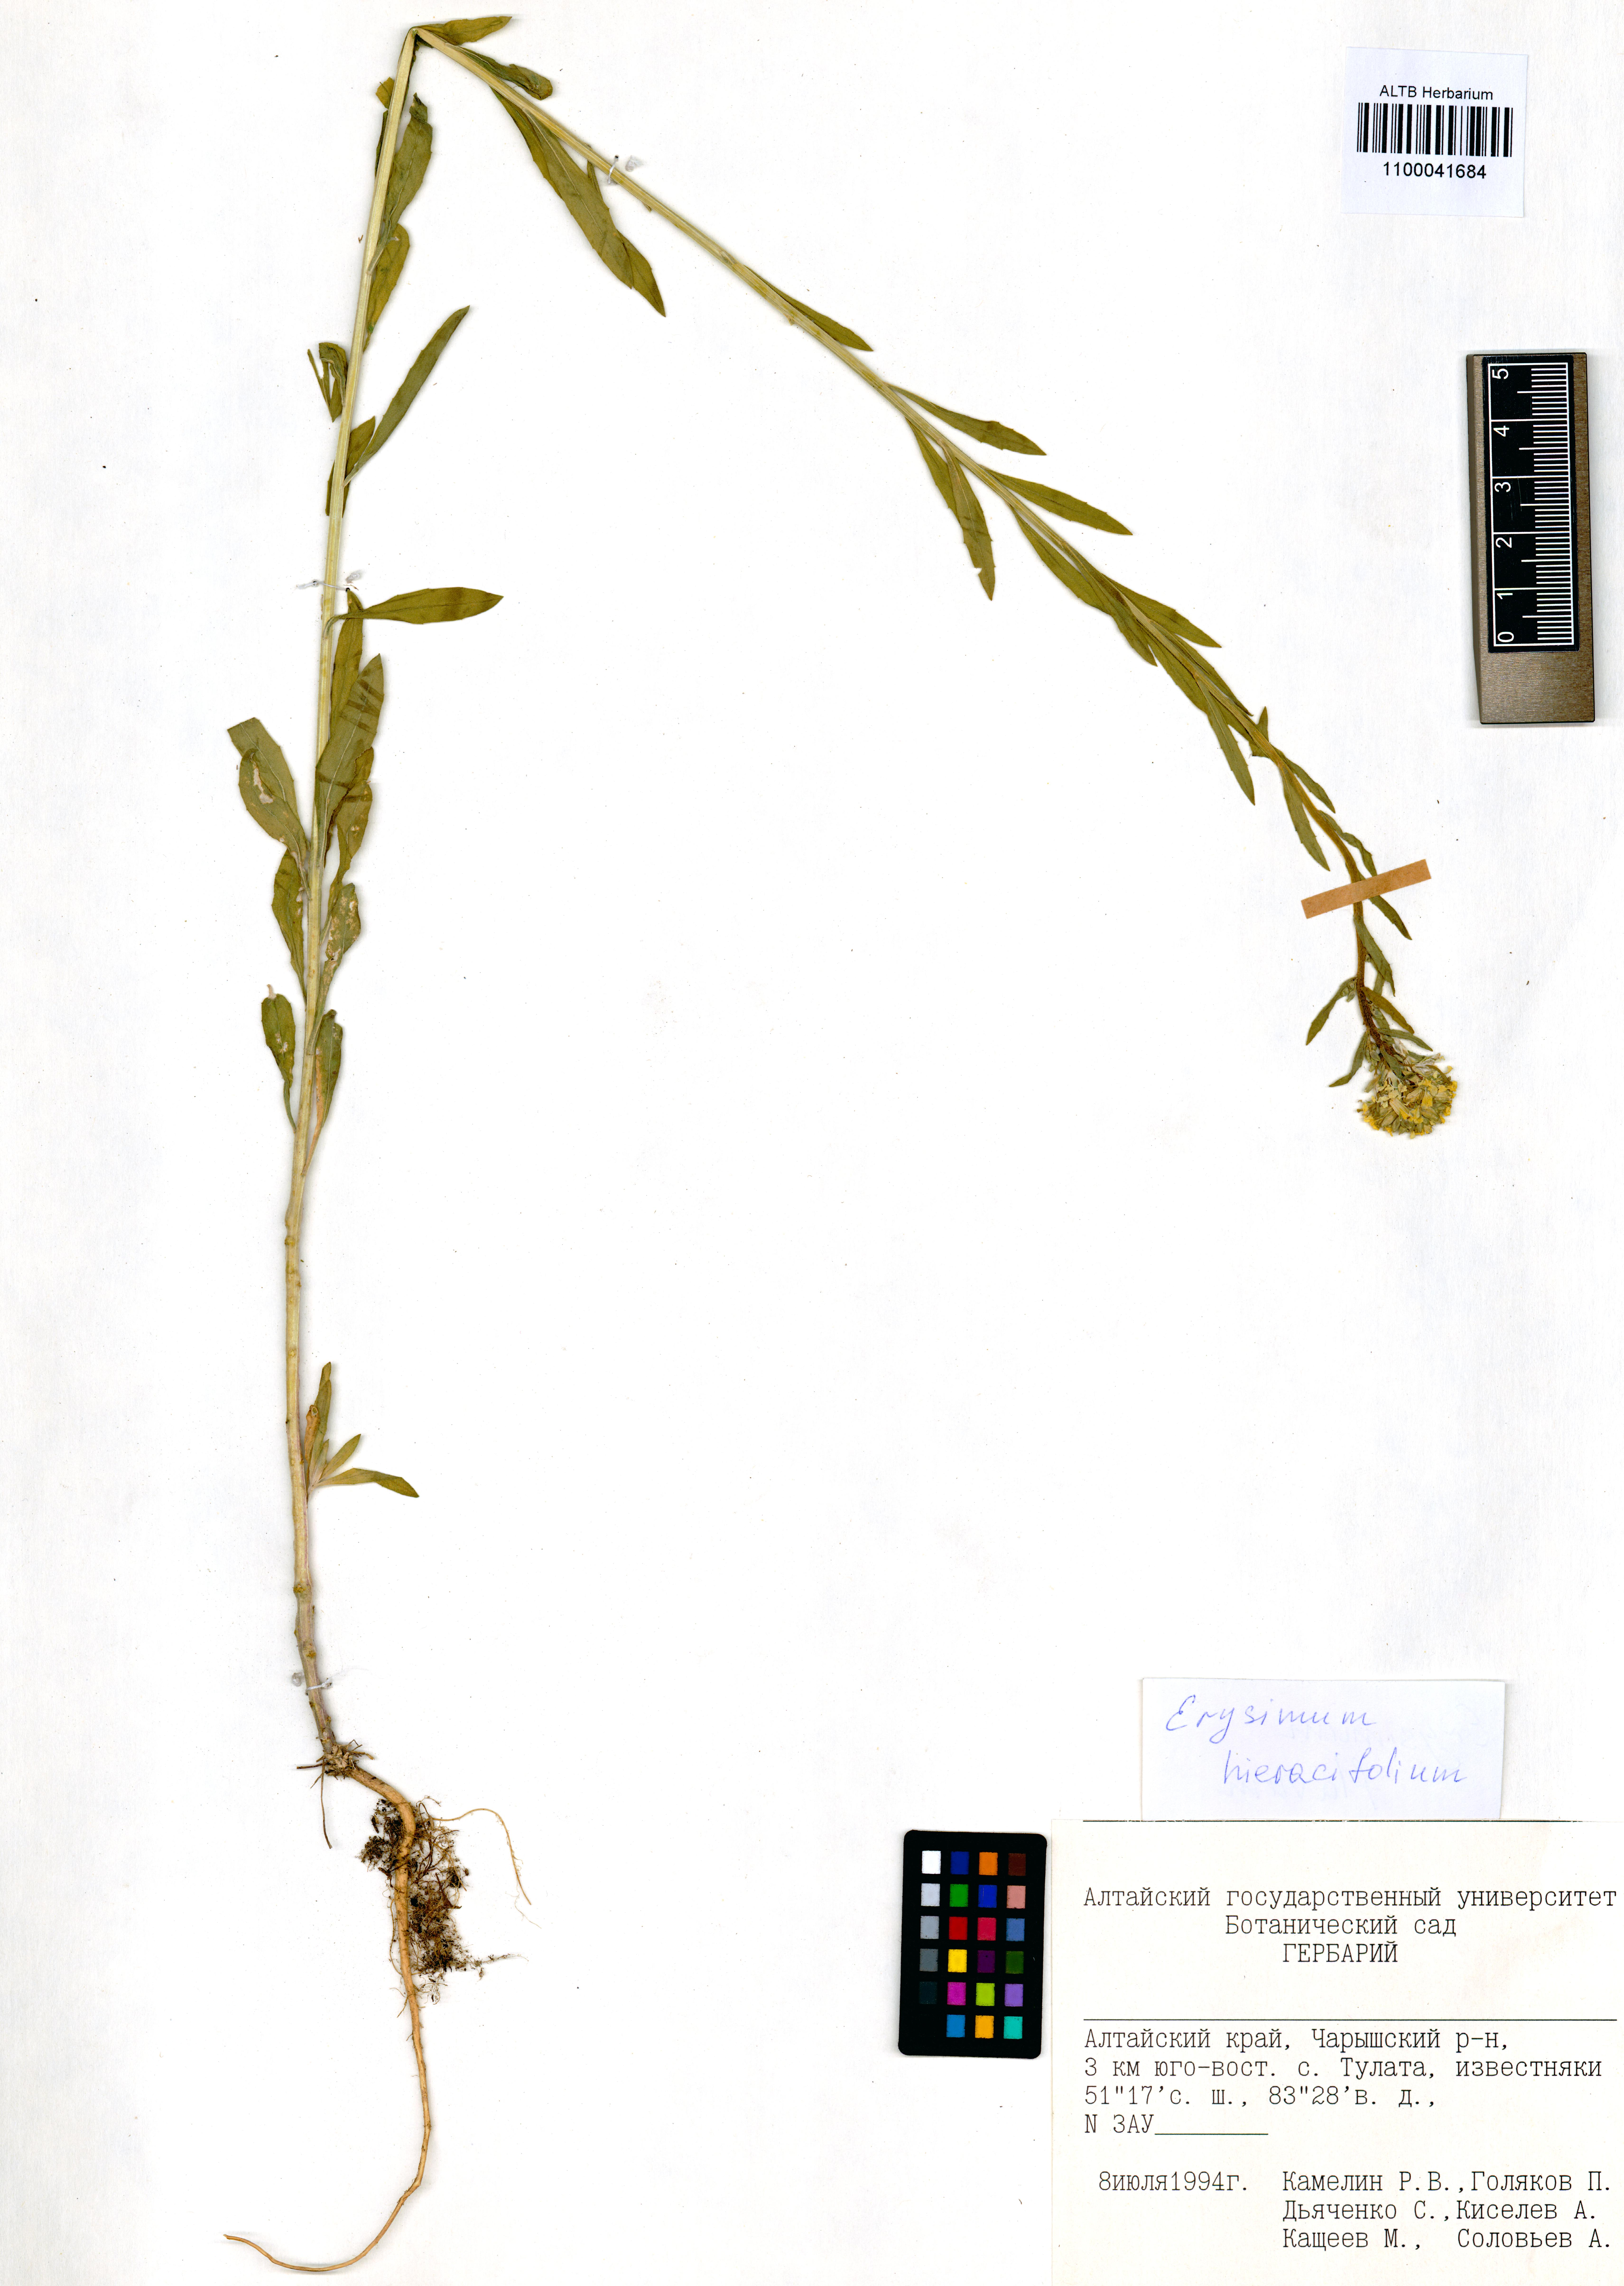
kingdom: Plantae
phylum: Tracheophyta
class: Magnoliopsida
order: Brassicales
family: Brassicaceae
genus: Erysimum
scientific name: Erysimum hieraciifolium
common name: European wallflower
